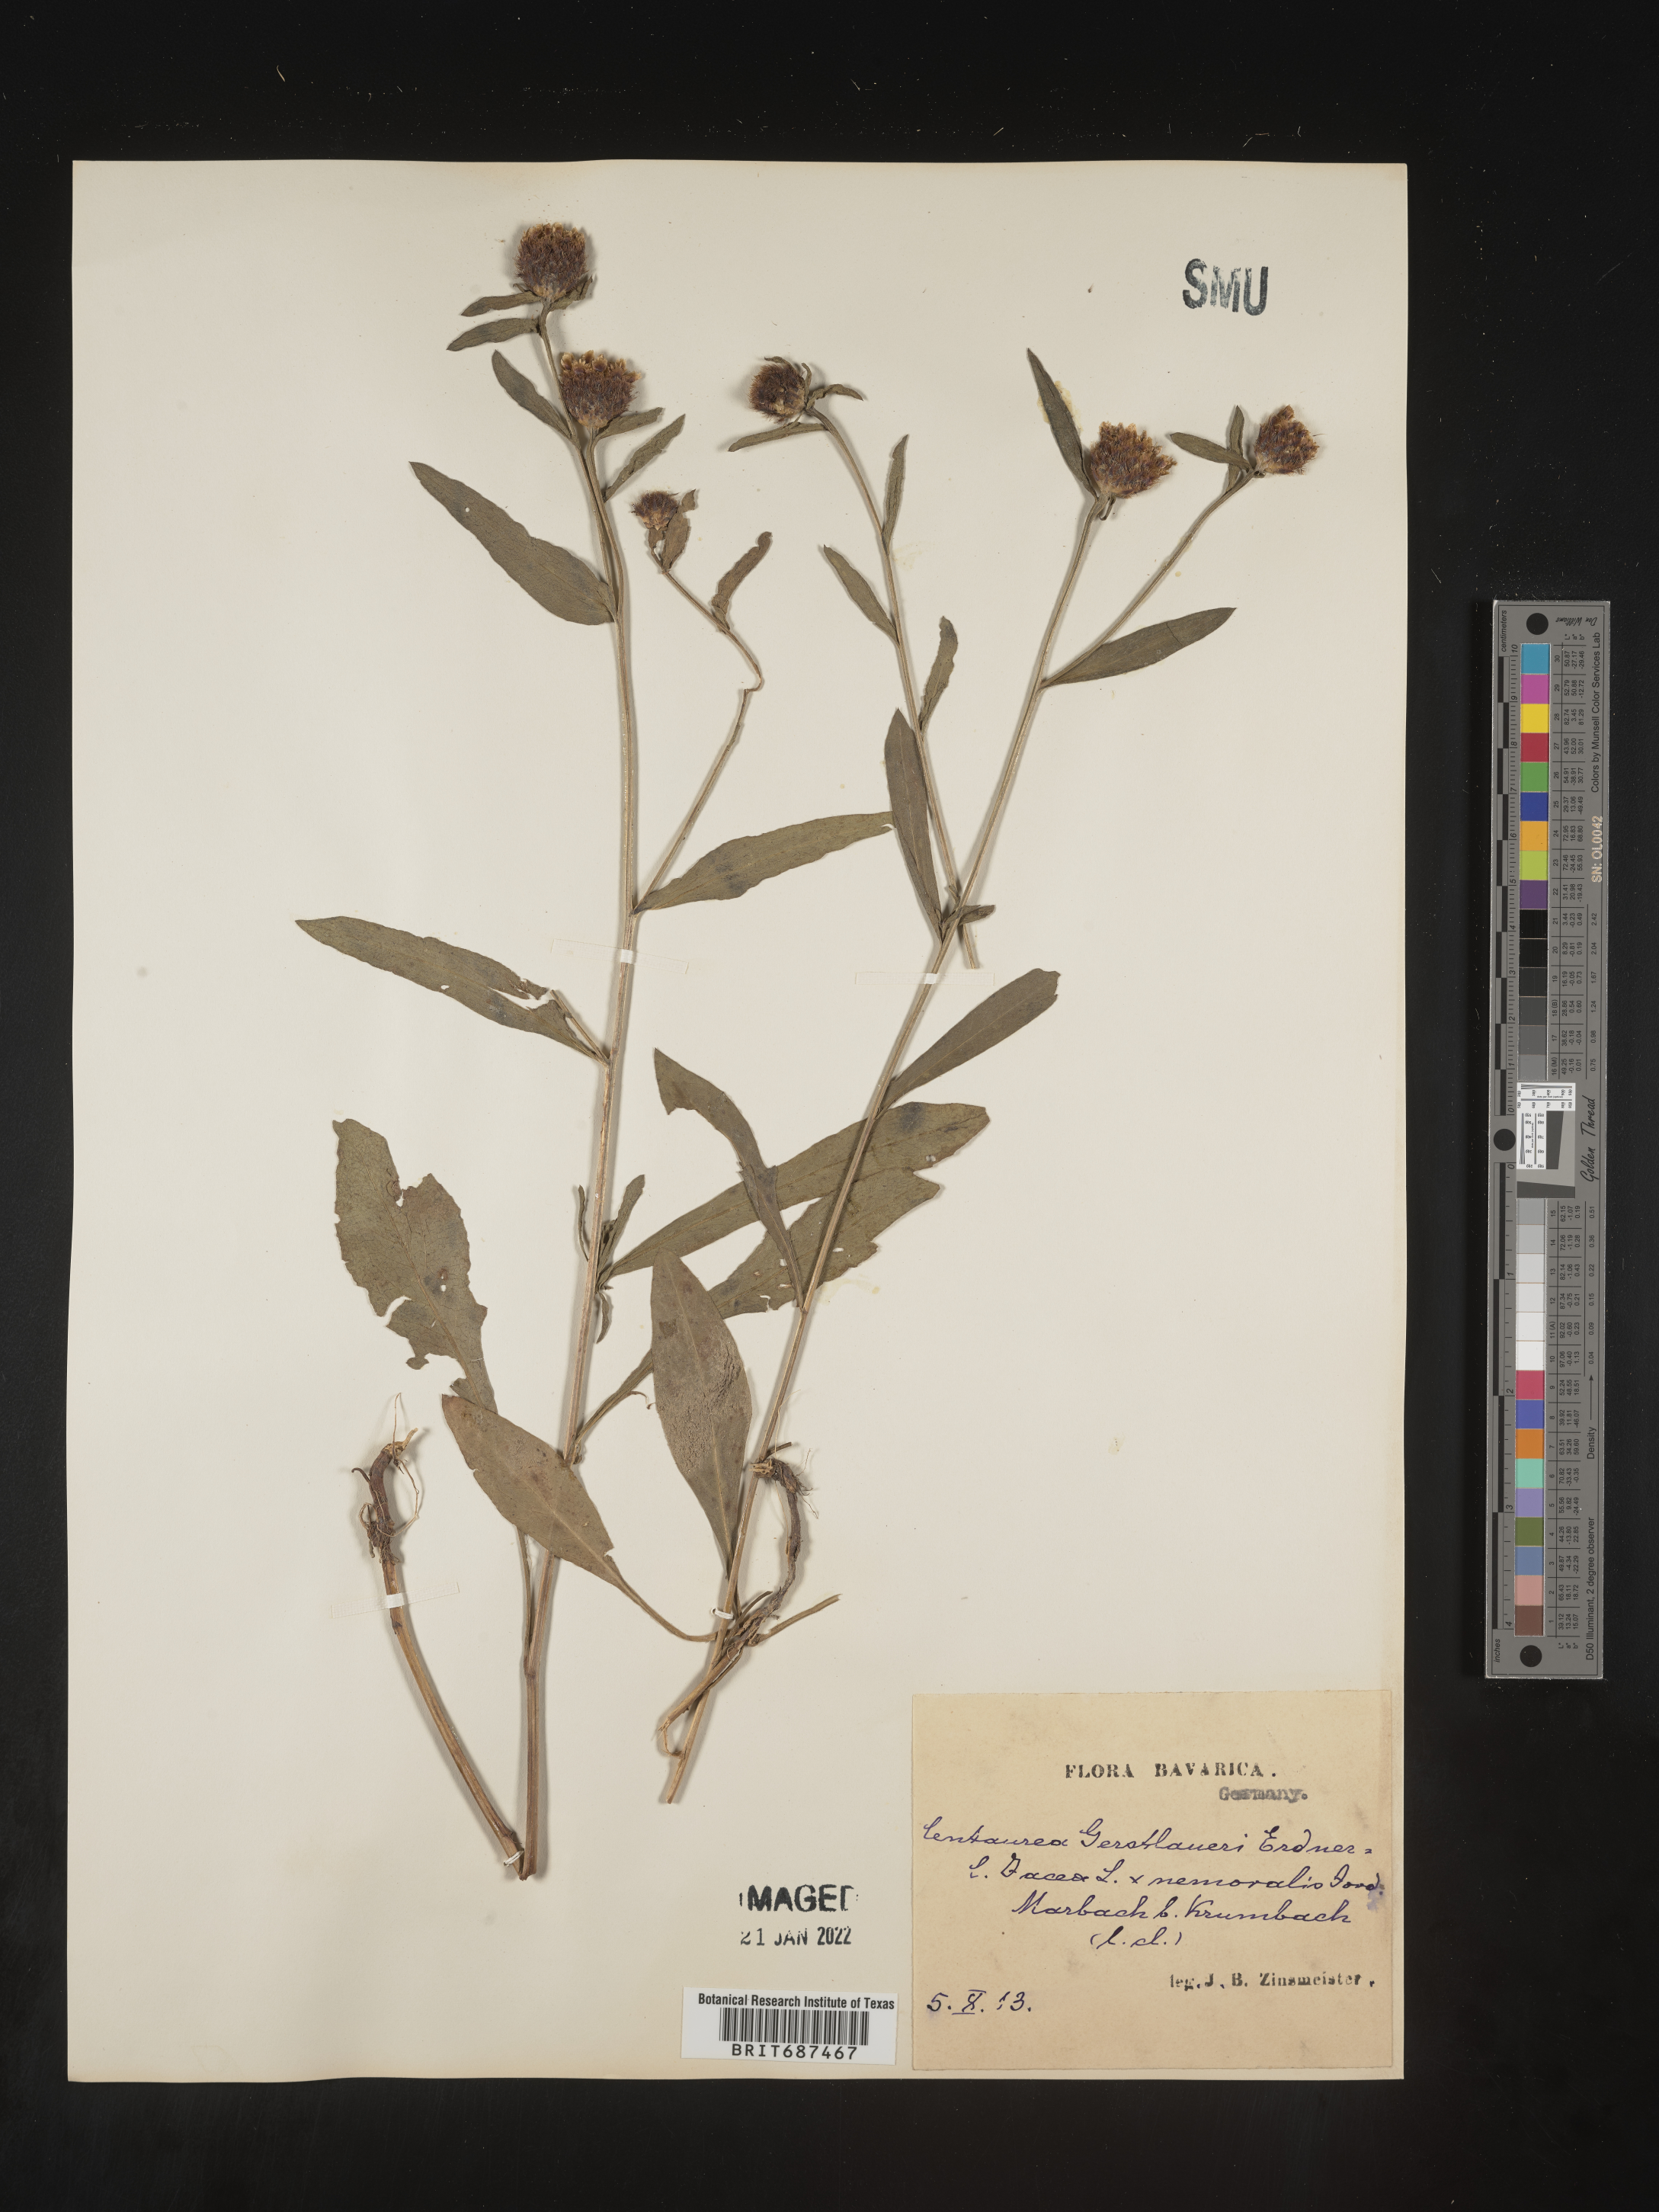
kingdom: Plantae
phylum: Tracheophyta
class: Magnoliopsida
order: Asterales
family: Asteraceae
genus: Centaurea
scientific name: Centaurea
